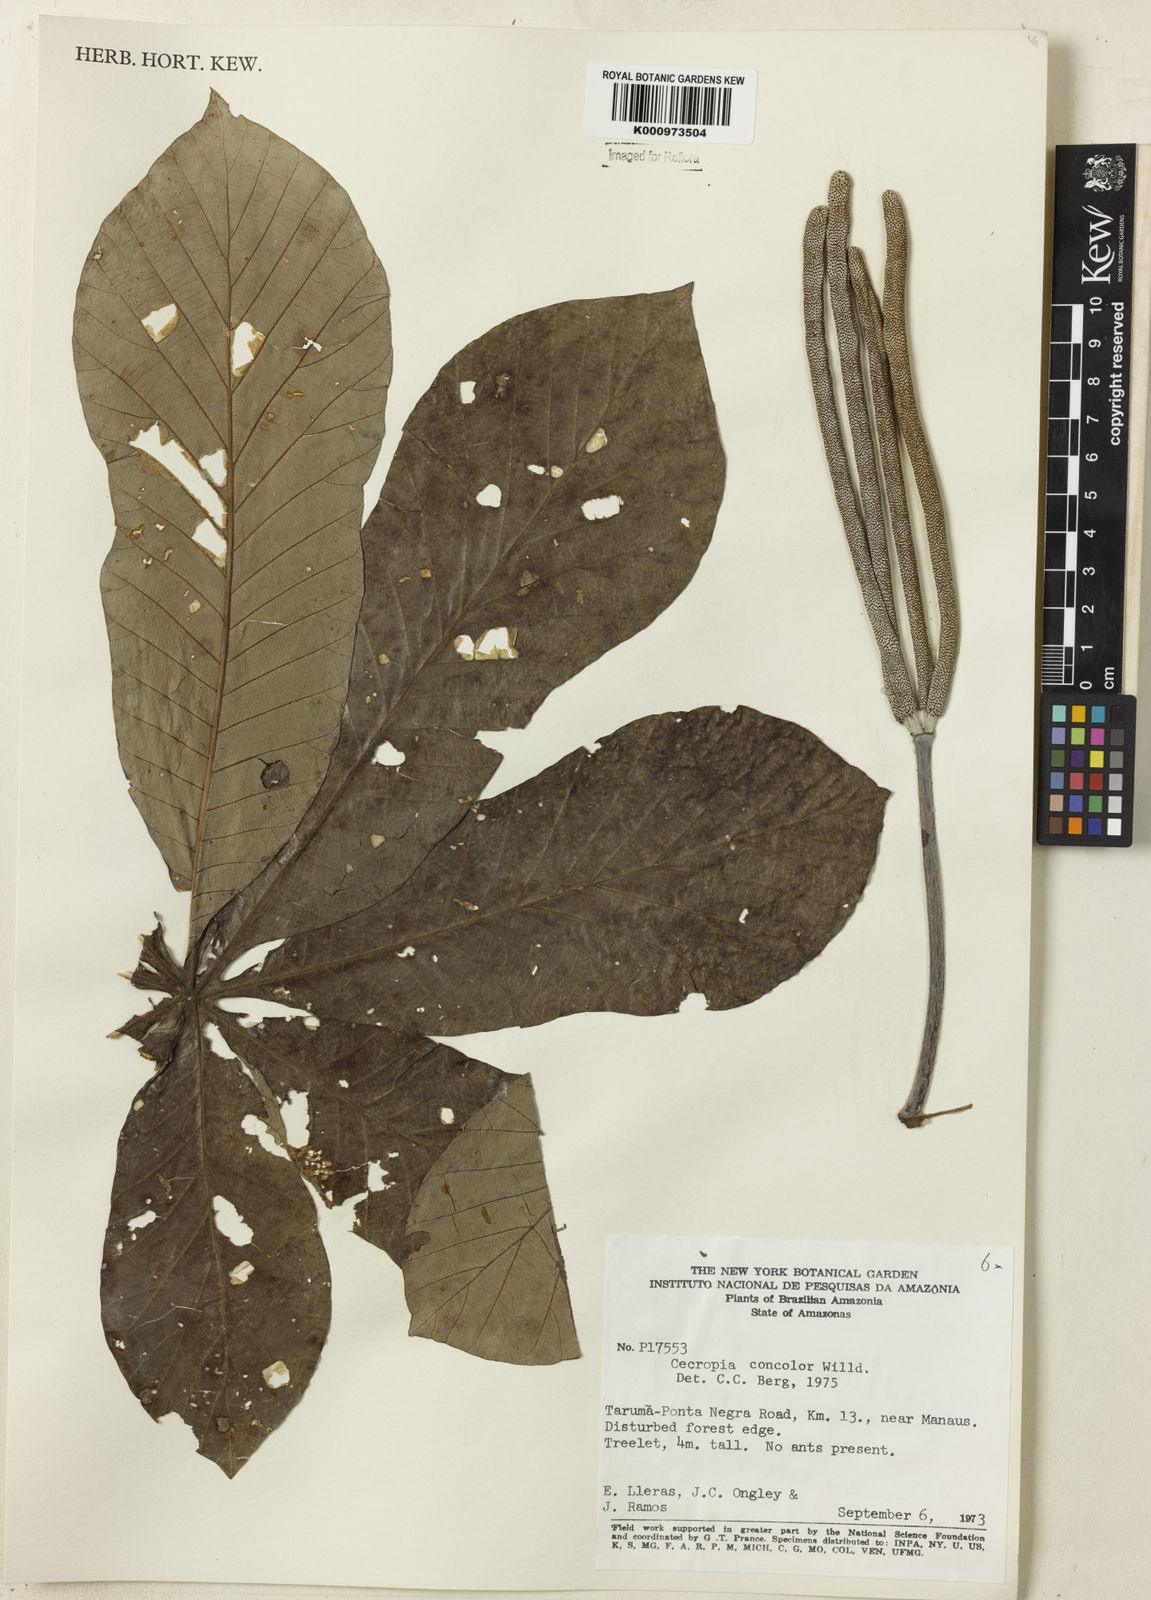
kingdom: Plantae
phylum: Tracheophyta
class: Magnoliopsida
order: Rosales
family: Urticaceae
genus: Cecropia
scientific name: Cecropia concolor
